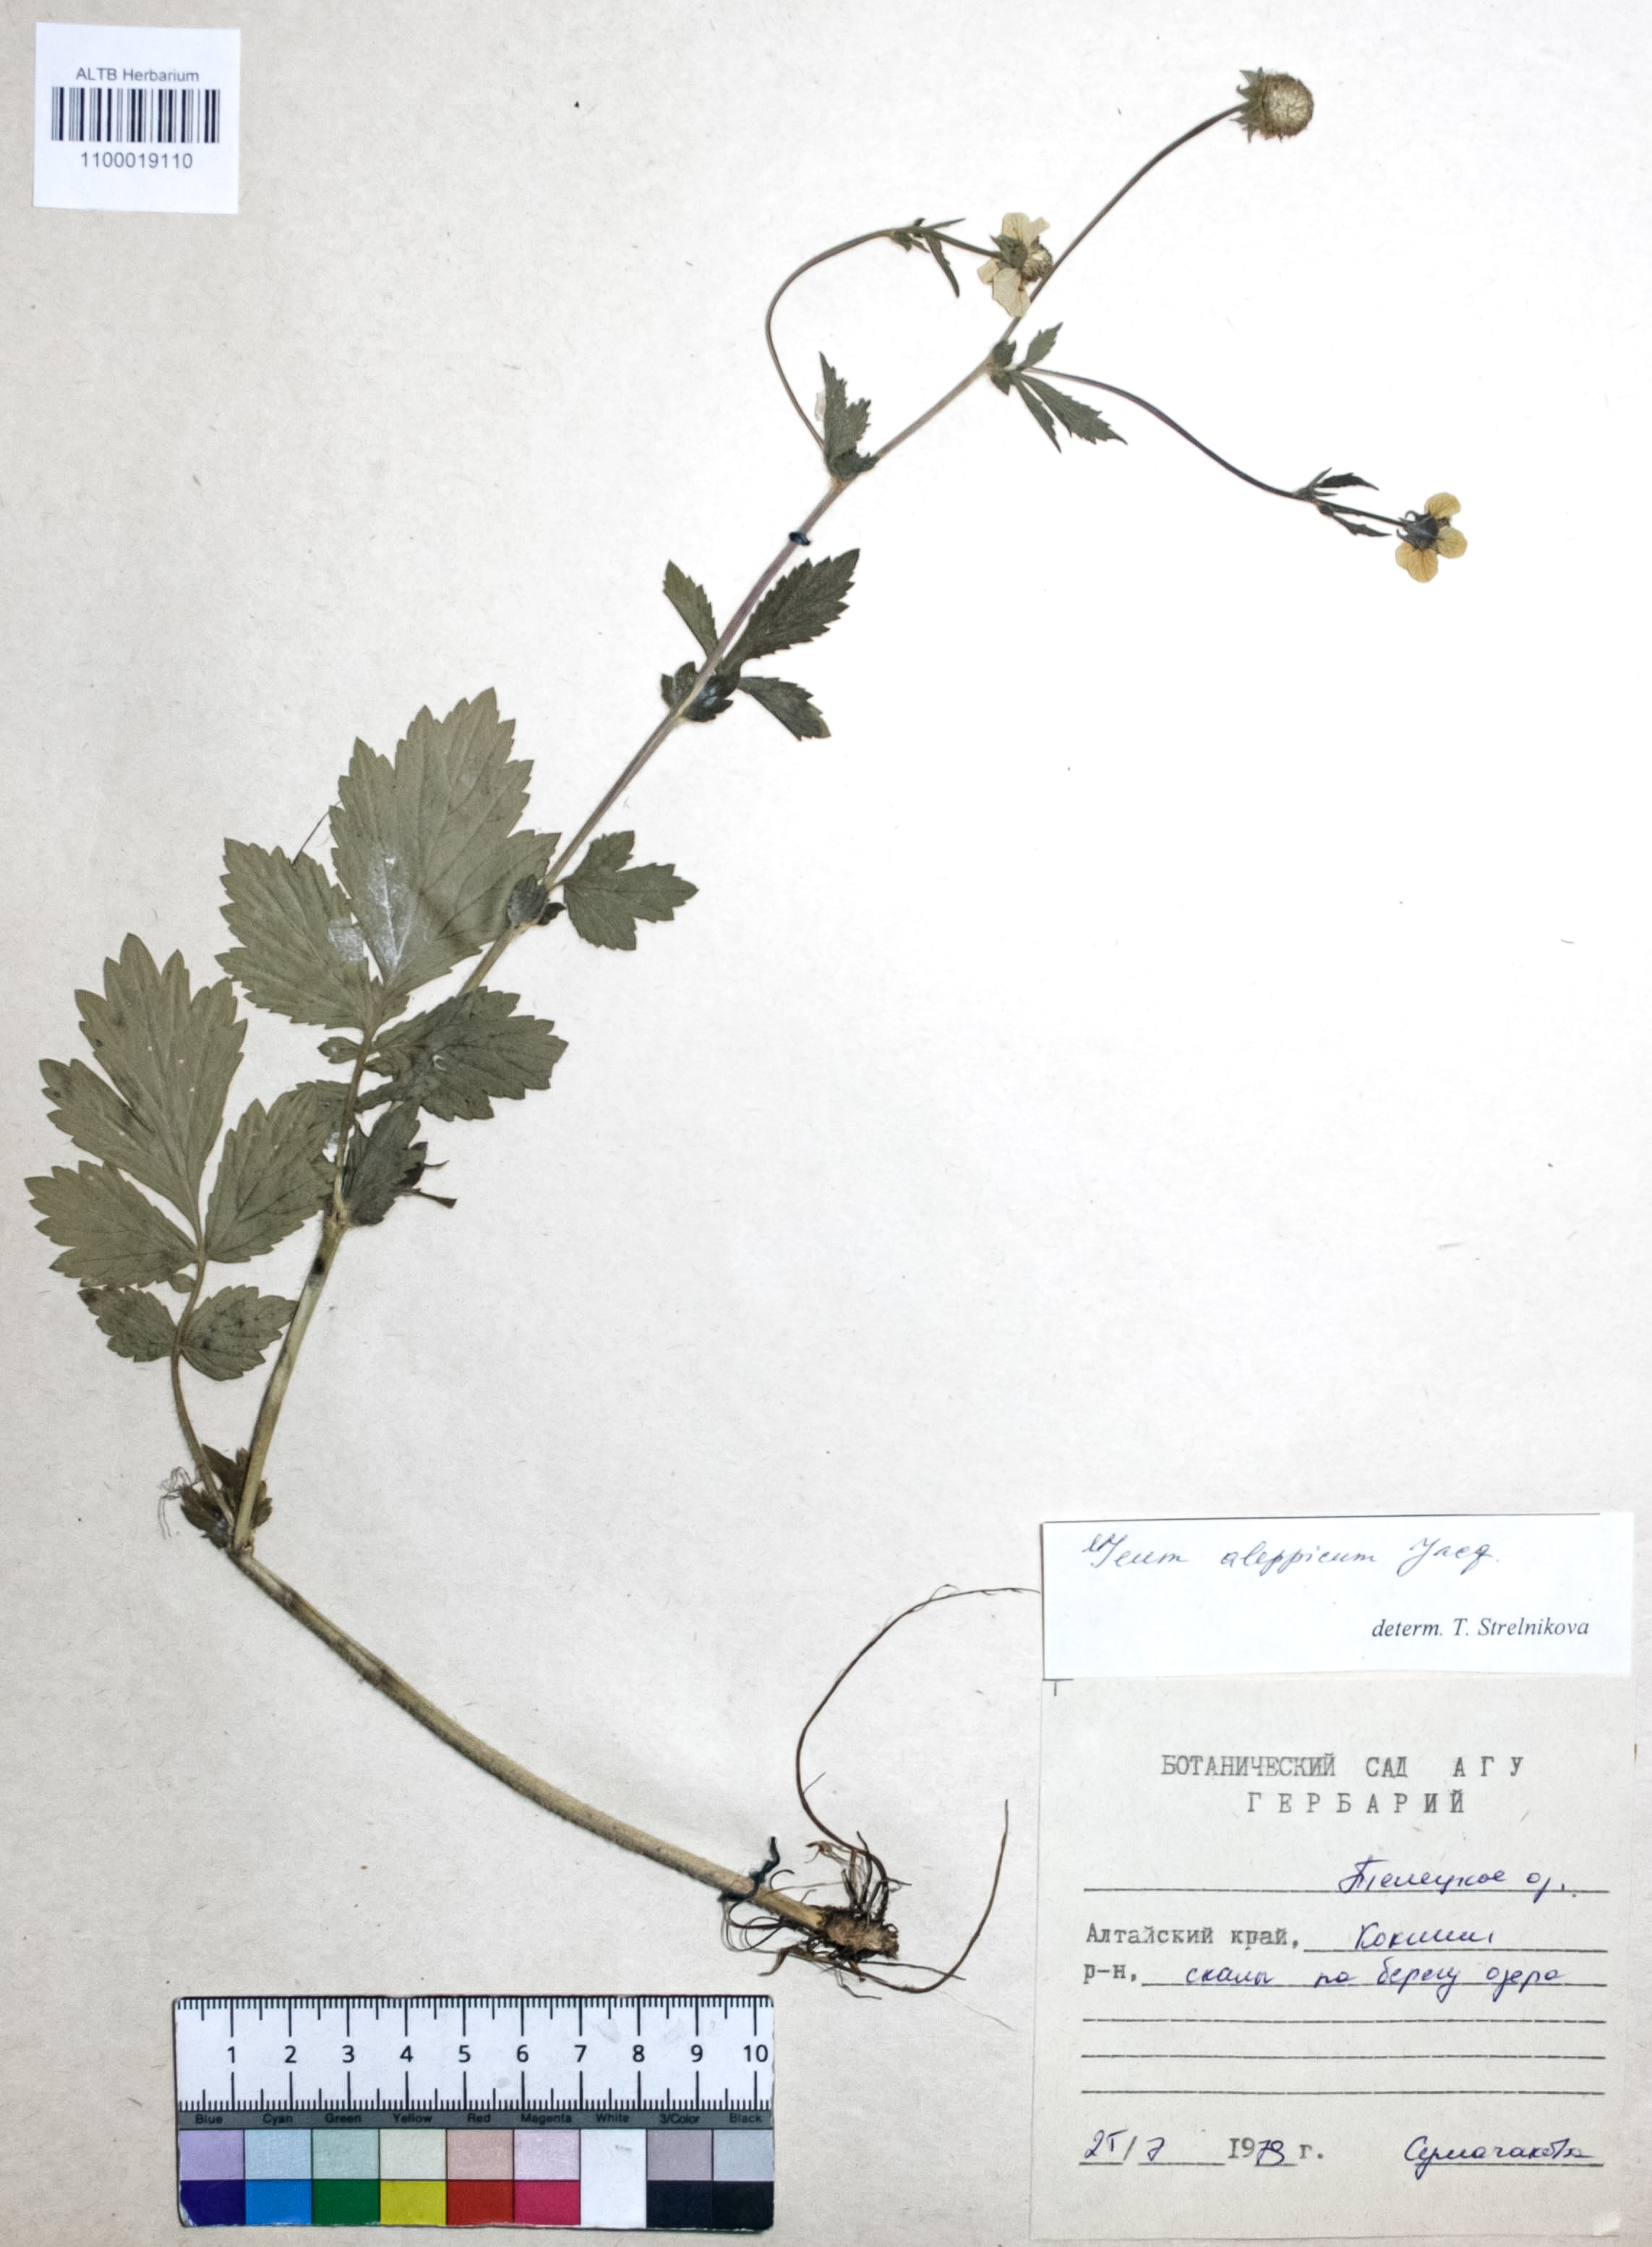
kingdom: Plantae
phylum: Tracheophyta
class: Magnoliopsida
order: Rosales
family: Rosaceae
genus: Geum
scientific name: Geum aleppicum
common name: Yellow avens
